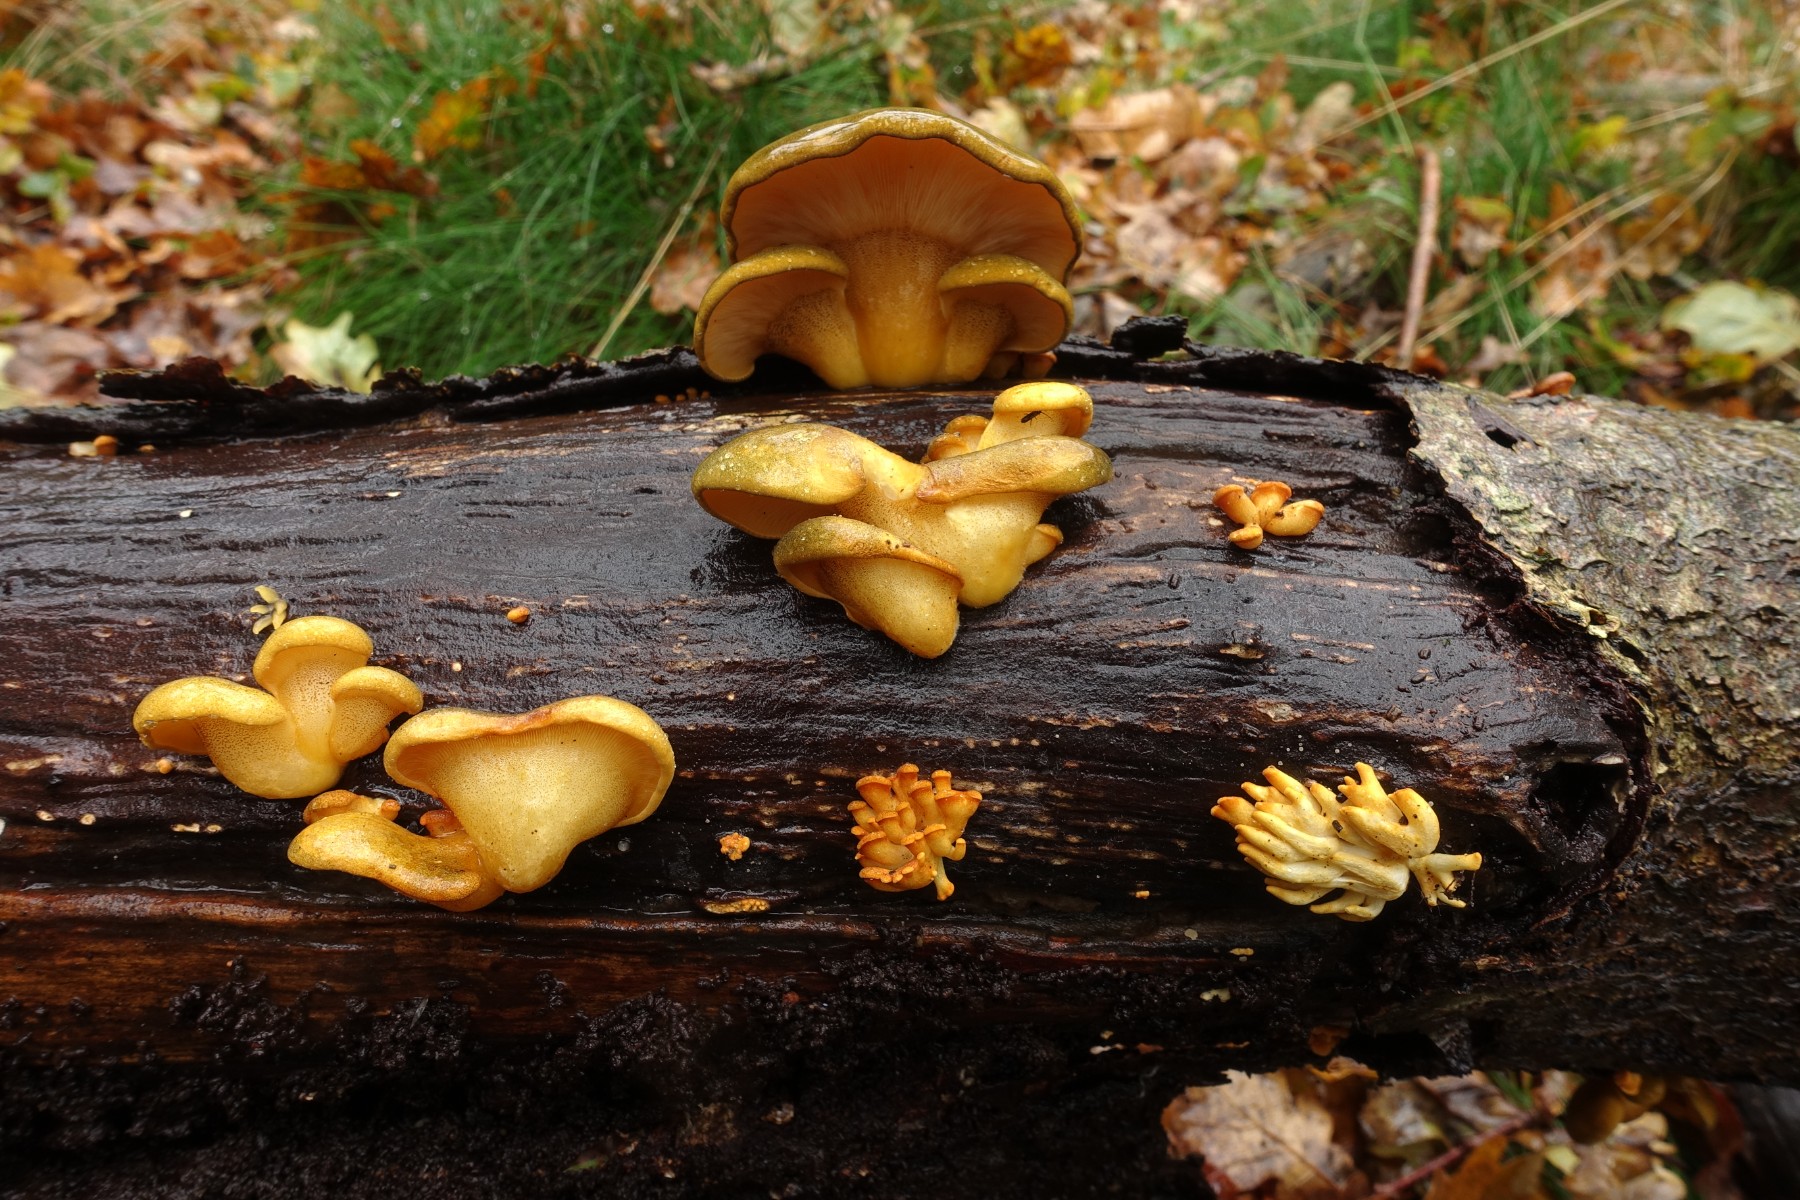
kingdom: Fungi
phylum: Basidiomycota
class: Agaricomycetes
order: Agaricales
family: Sarcomyxaceae
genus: Sarcomyxa
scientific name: Sarcomyxa serotina
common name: gummihat
